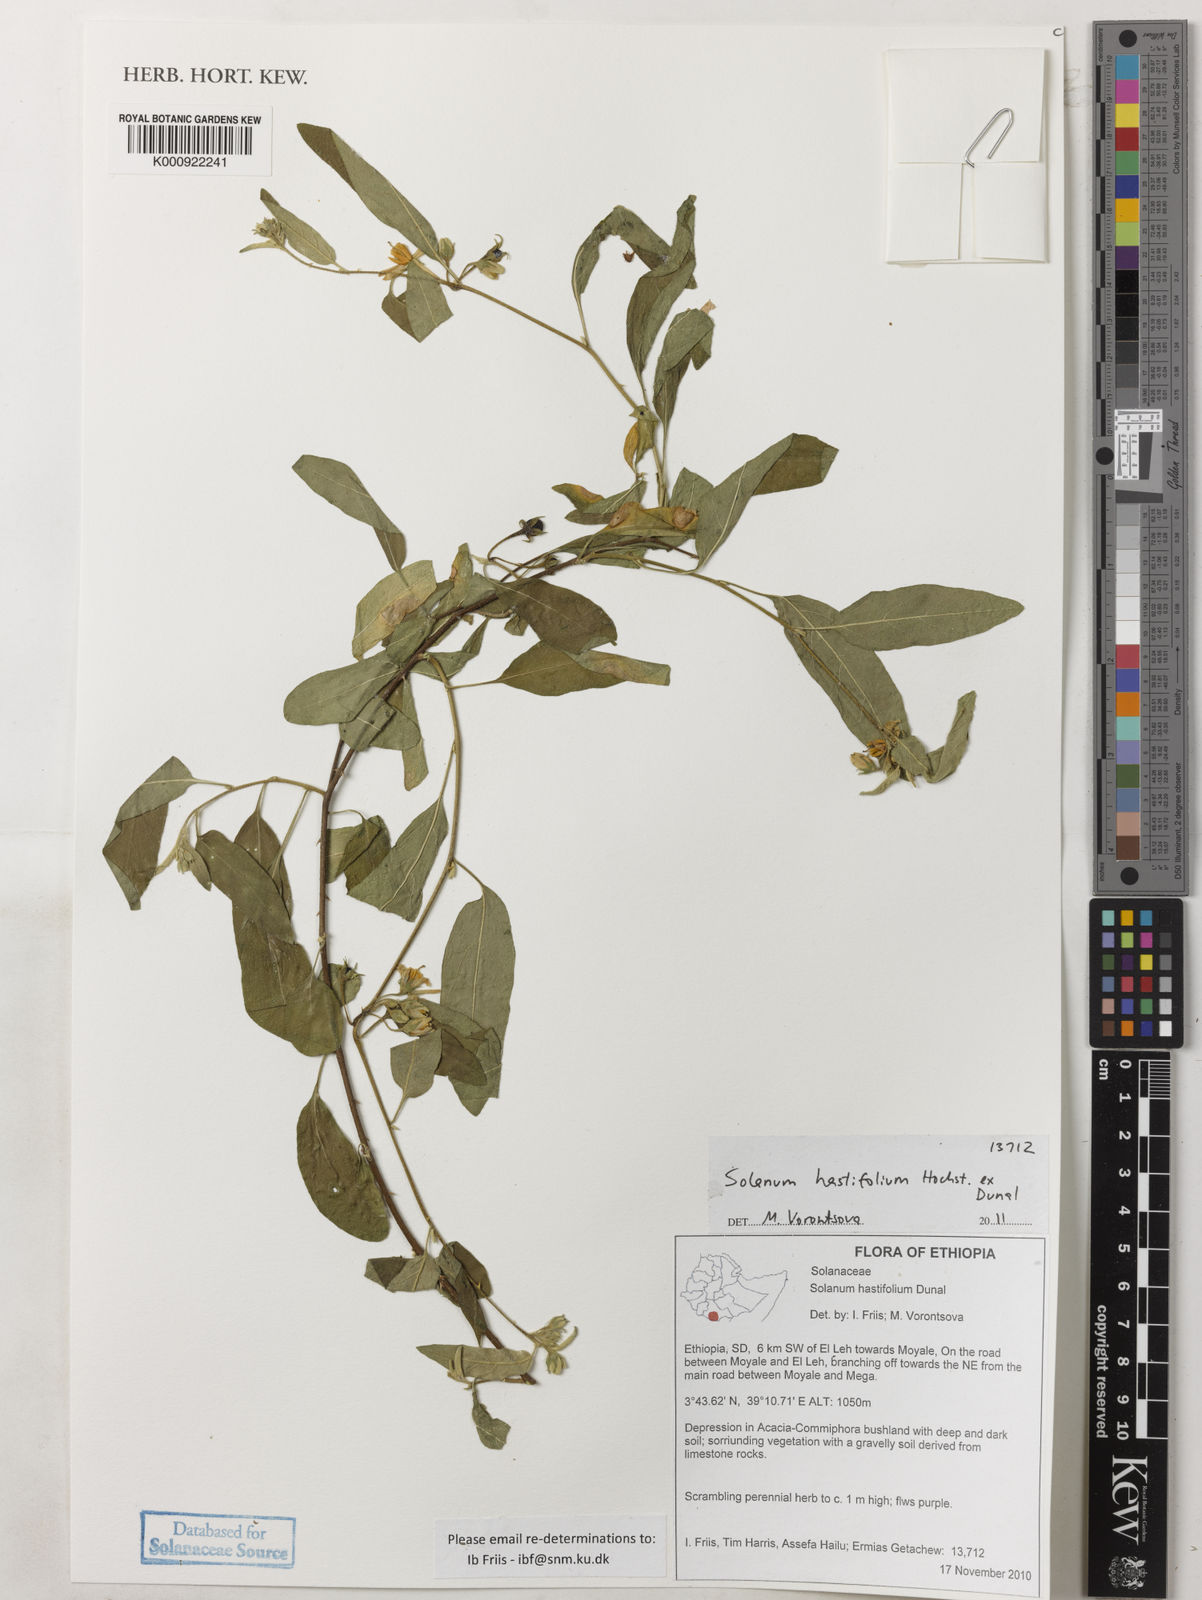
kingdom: Plantae
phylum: Tracheophyta
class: Magnoliopsida
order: Solanales
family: Solanaceae
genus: Solanum
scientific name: Solanum hastifolium
